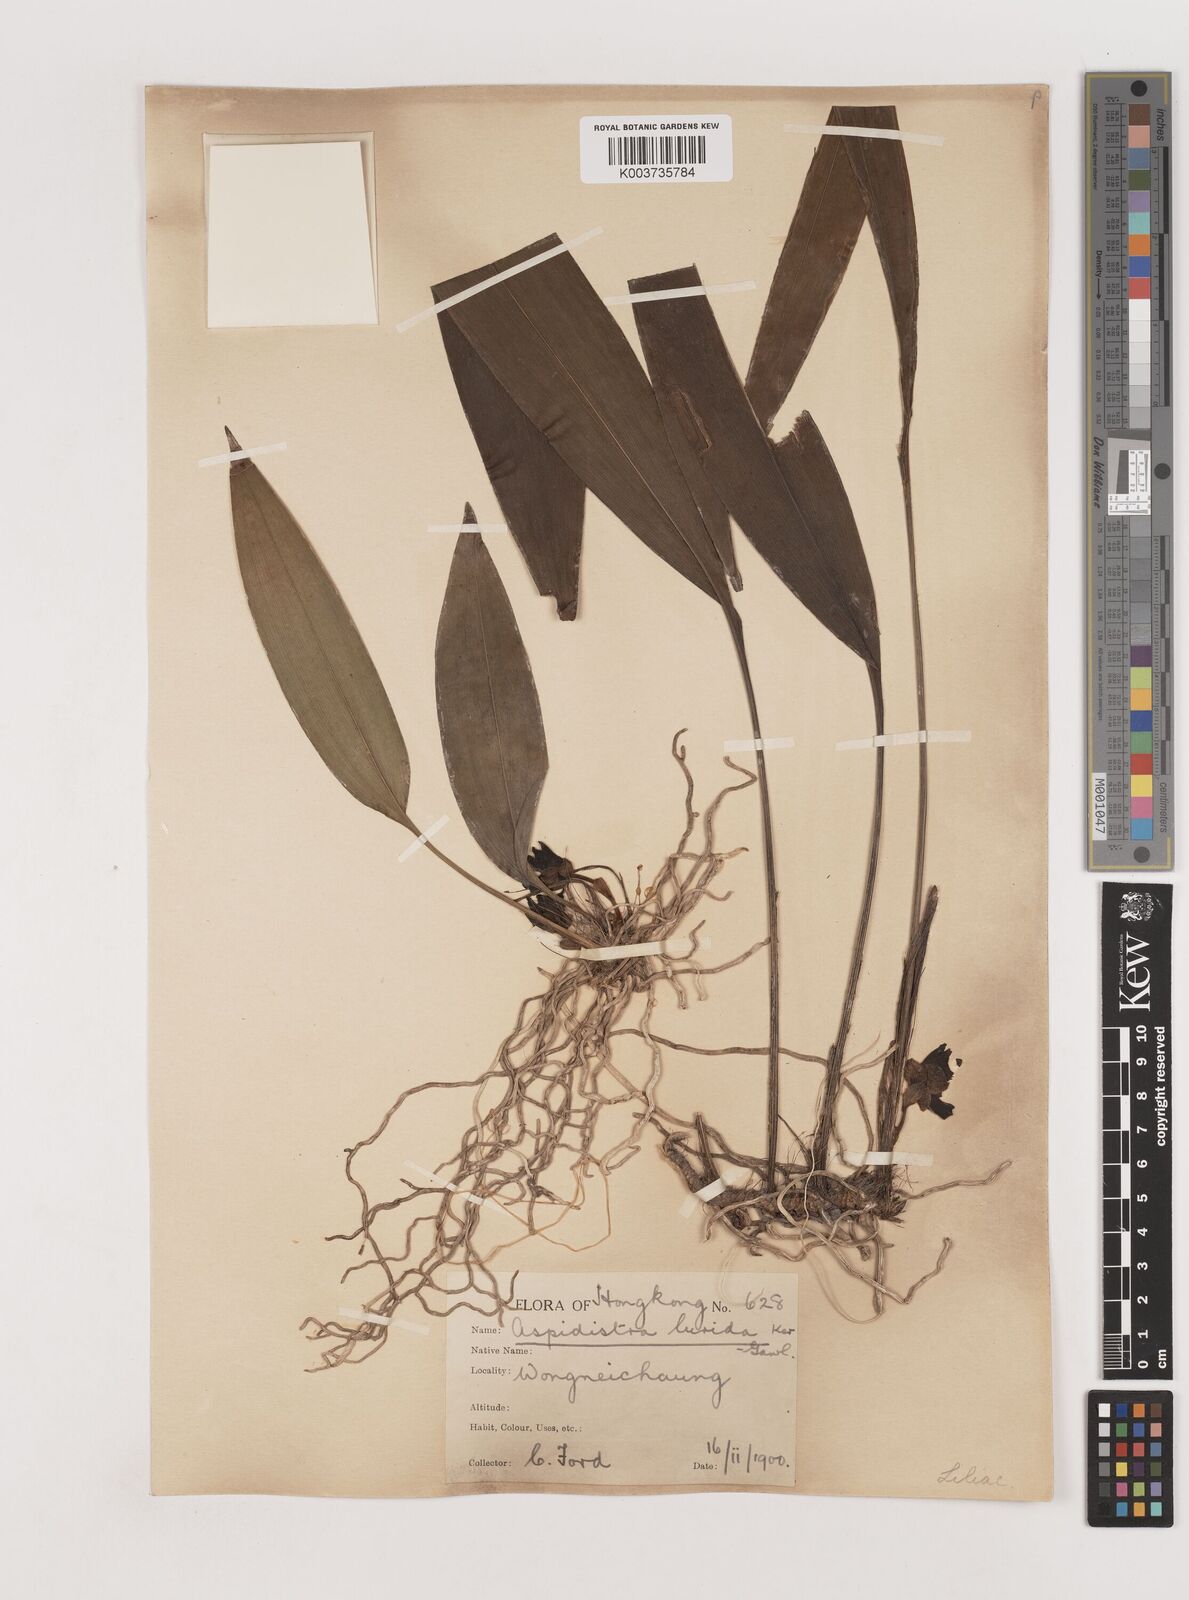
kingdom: Plantae
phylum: Tracheophyta
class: Liliopsida
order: Asparagales
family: Asparagaceae
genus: Aspidistra
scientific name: Aspidistra lurida
